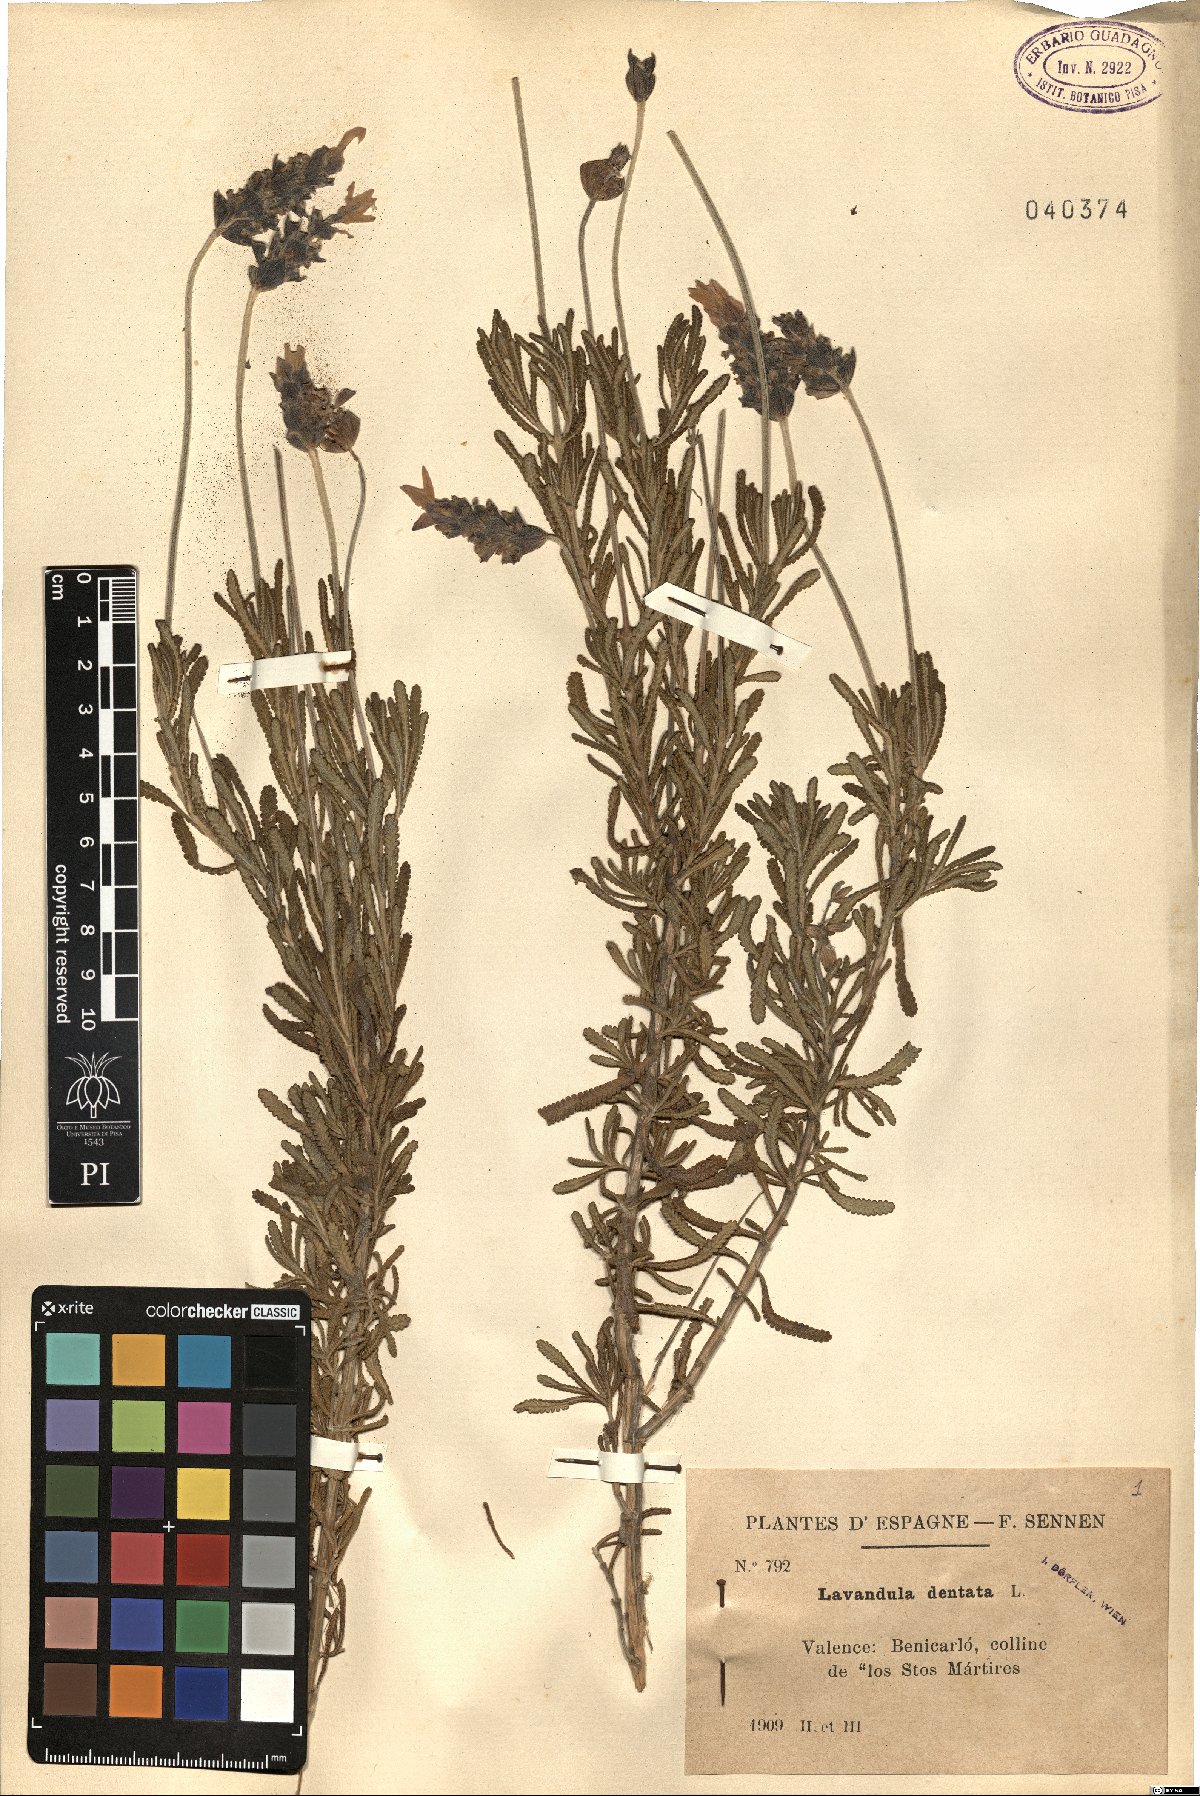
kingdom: Plantae
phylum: Tracheophyta
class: Magnoliopsida
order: Lamiales
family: Lamiaceae
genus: Lavandula
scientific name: Lavandula dentata
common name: French lavender
